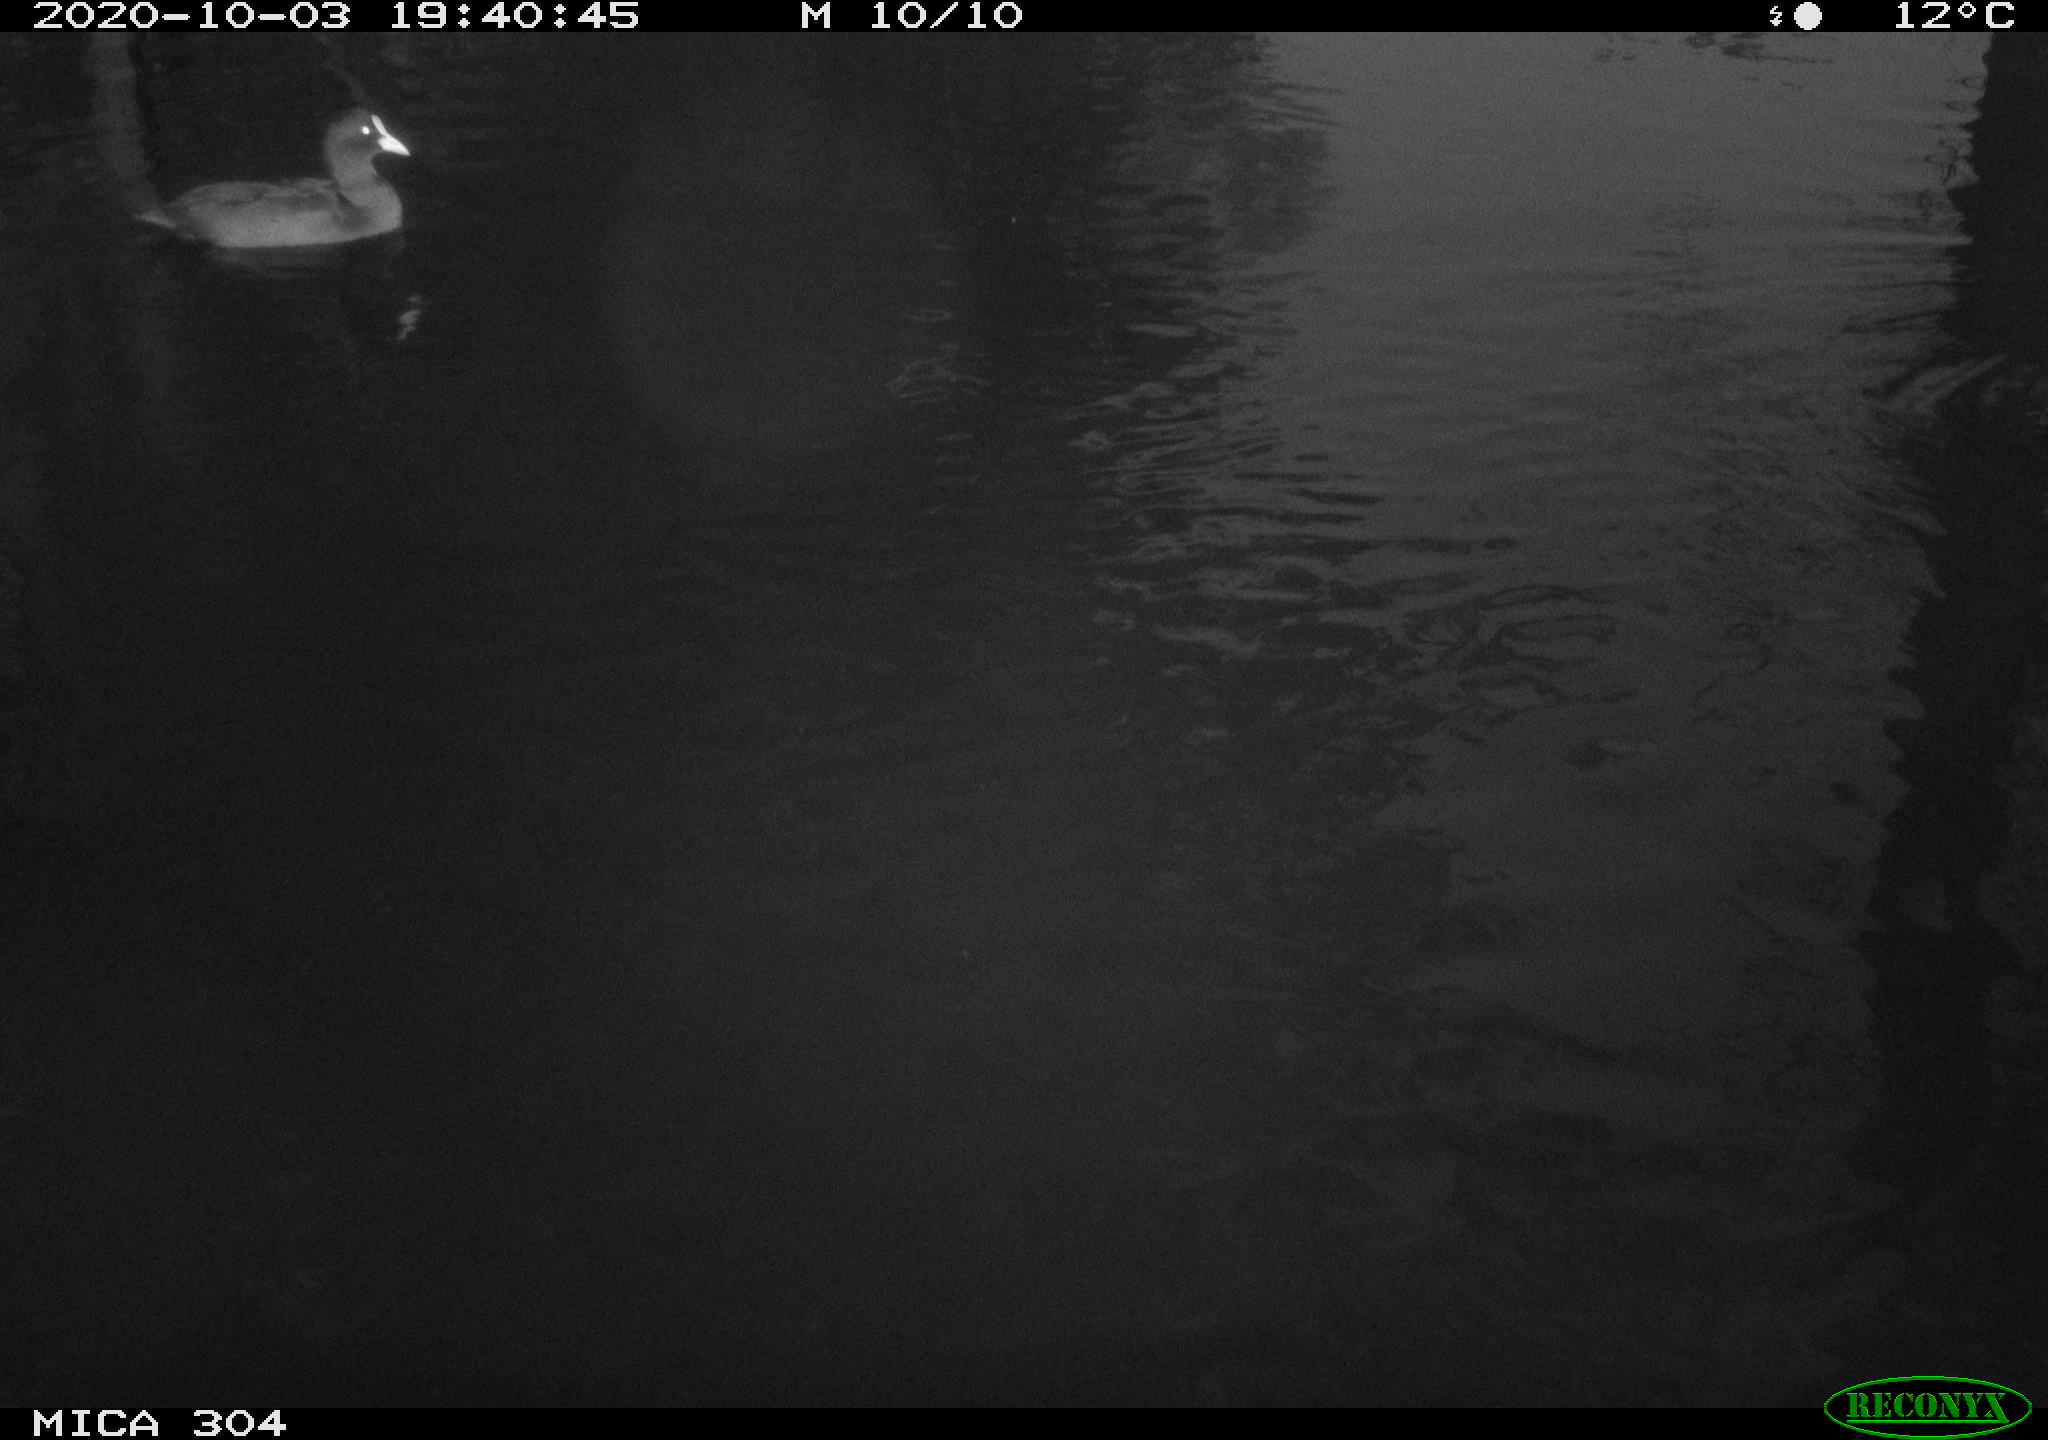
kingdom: Animalia
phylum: Chordata
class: Aves
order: Anseriformes
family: Anatidae
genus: Mareca
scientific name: Mareca strepera
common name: Gadwall
